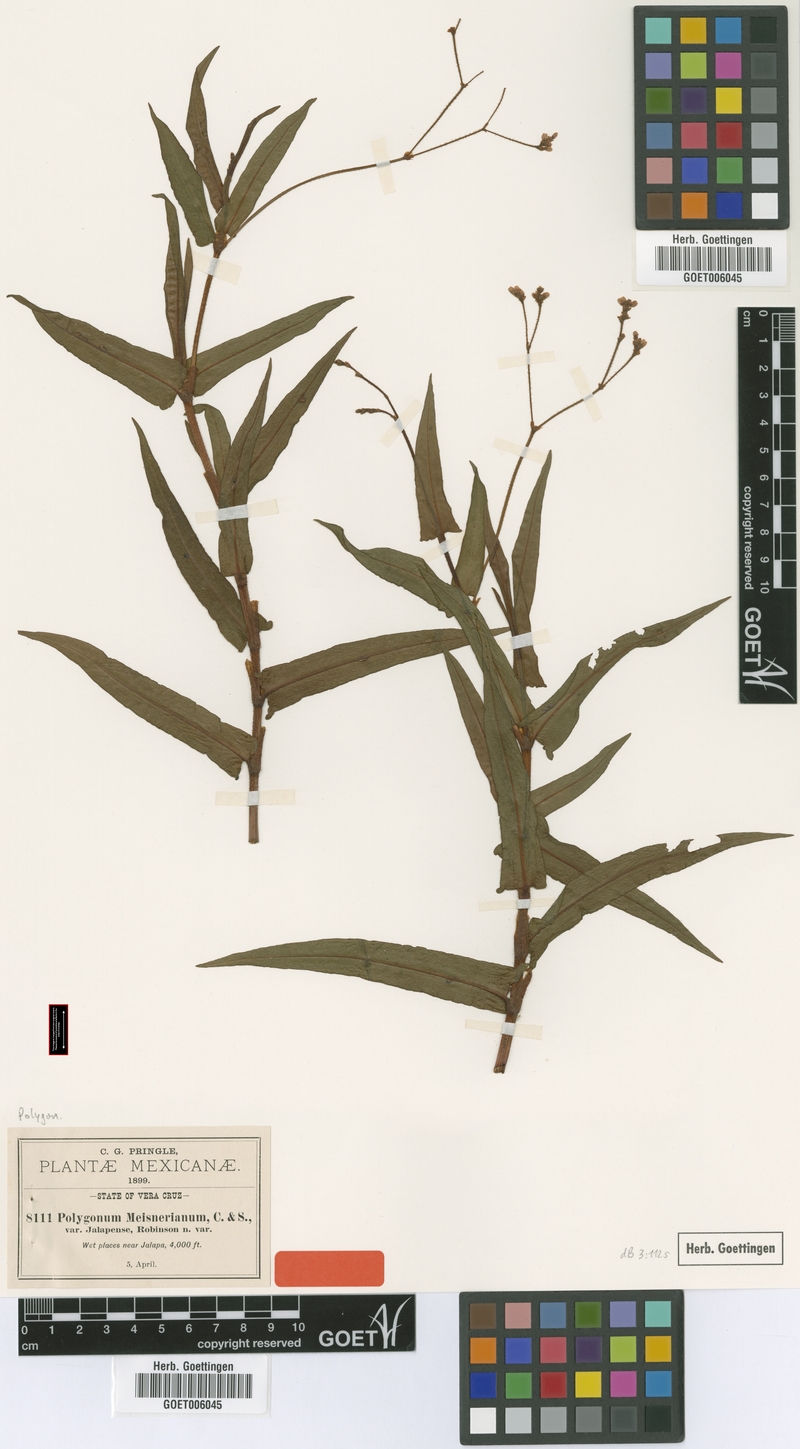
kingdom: Plantae
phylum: Tracheophyta
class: Magnoliopsida
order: Caryophyllales
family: Polygonaceae
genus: Persicaria
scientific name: Persicaria meisneriana
